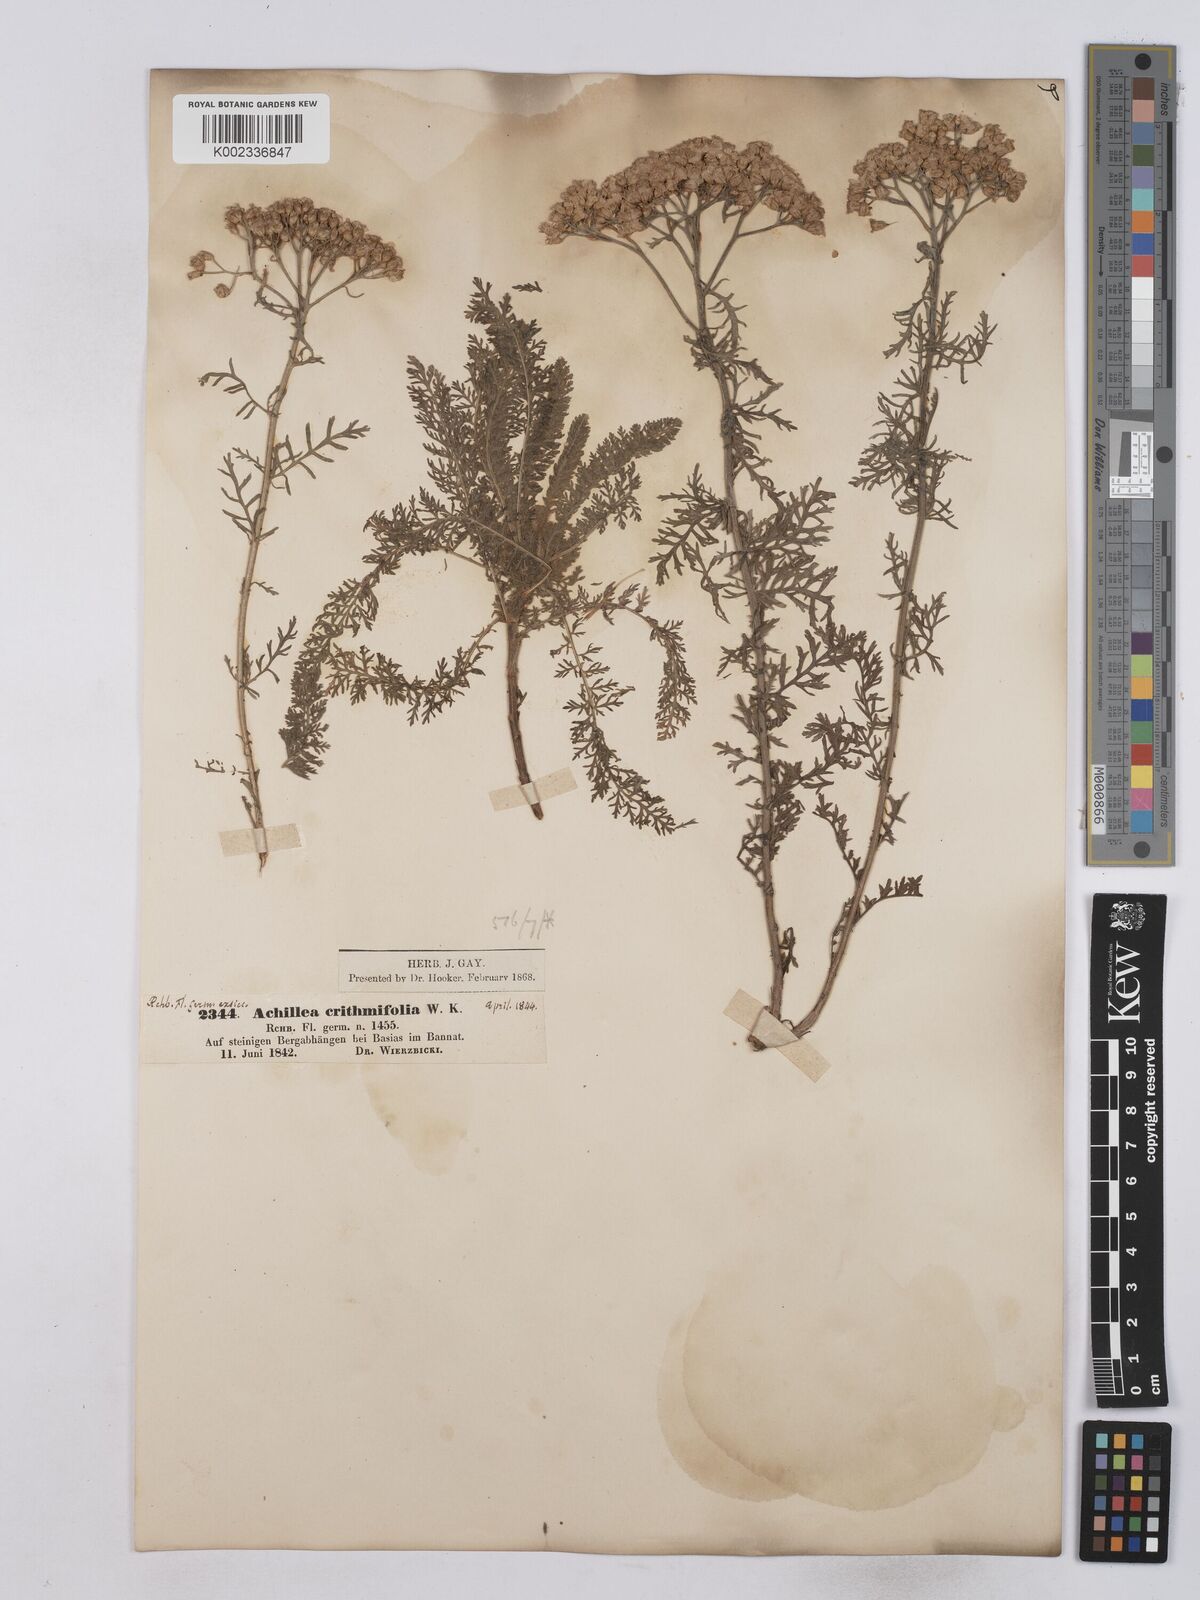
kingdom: Plantae
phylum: Tracheophyta
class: Magnoliopsida
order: Asterales
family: Asteraceae
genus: Achillea
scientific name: Achillea crithmifolia
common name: Yarrow
